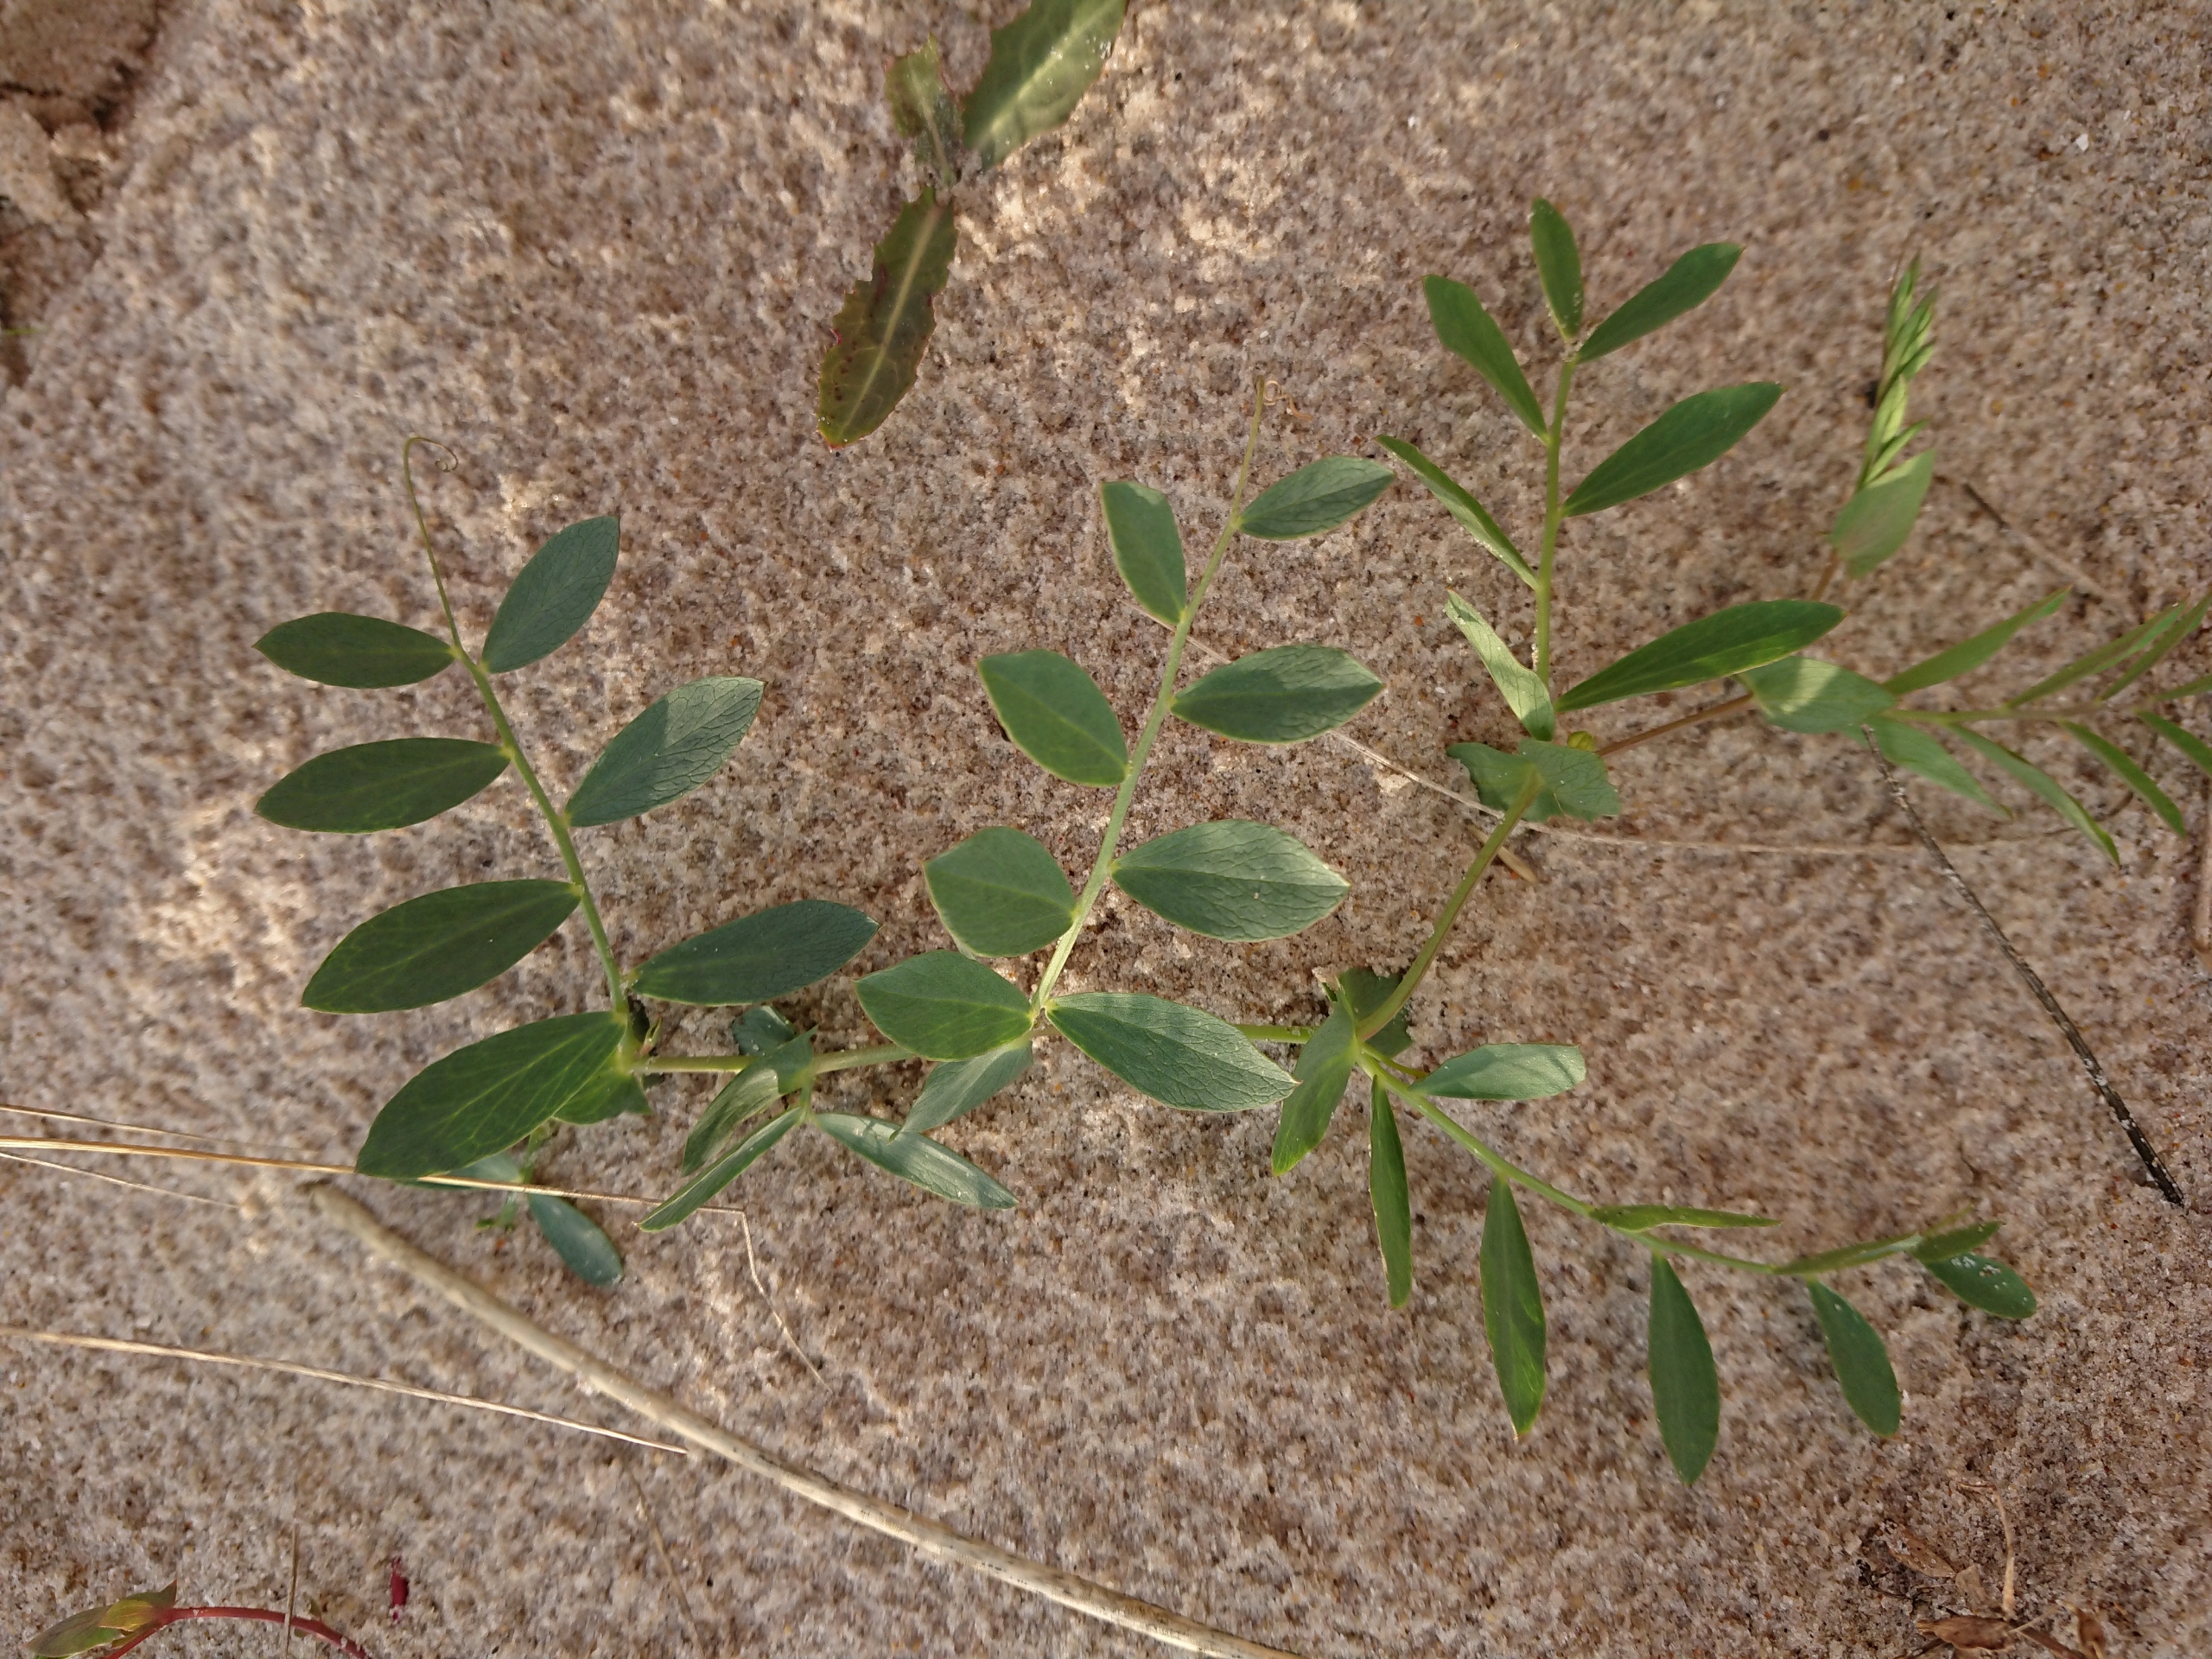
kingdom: Plantae
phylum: Tracheophyta
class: Magnoliopsida
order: Fabales
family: Fabaceae
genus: Lathyrus
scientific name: Lathyrus japonicus
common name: Klit-fladbælg
